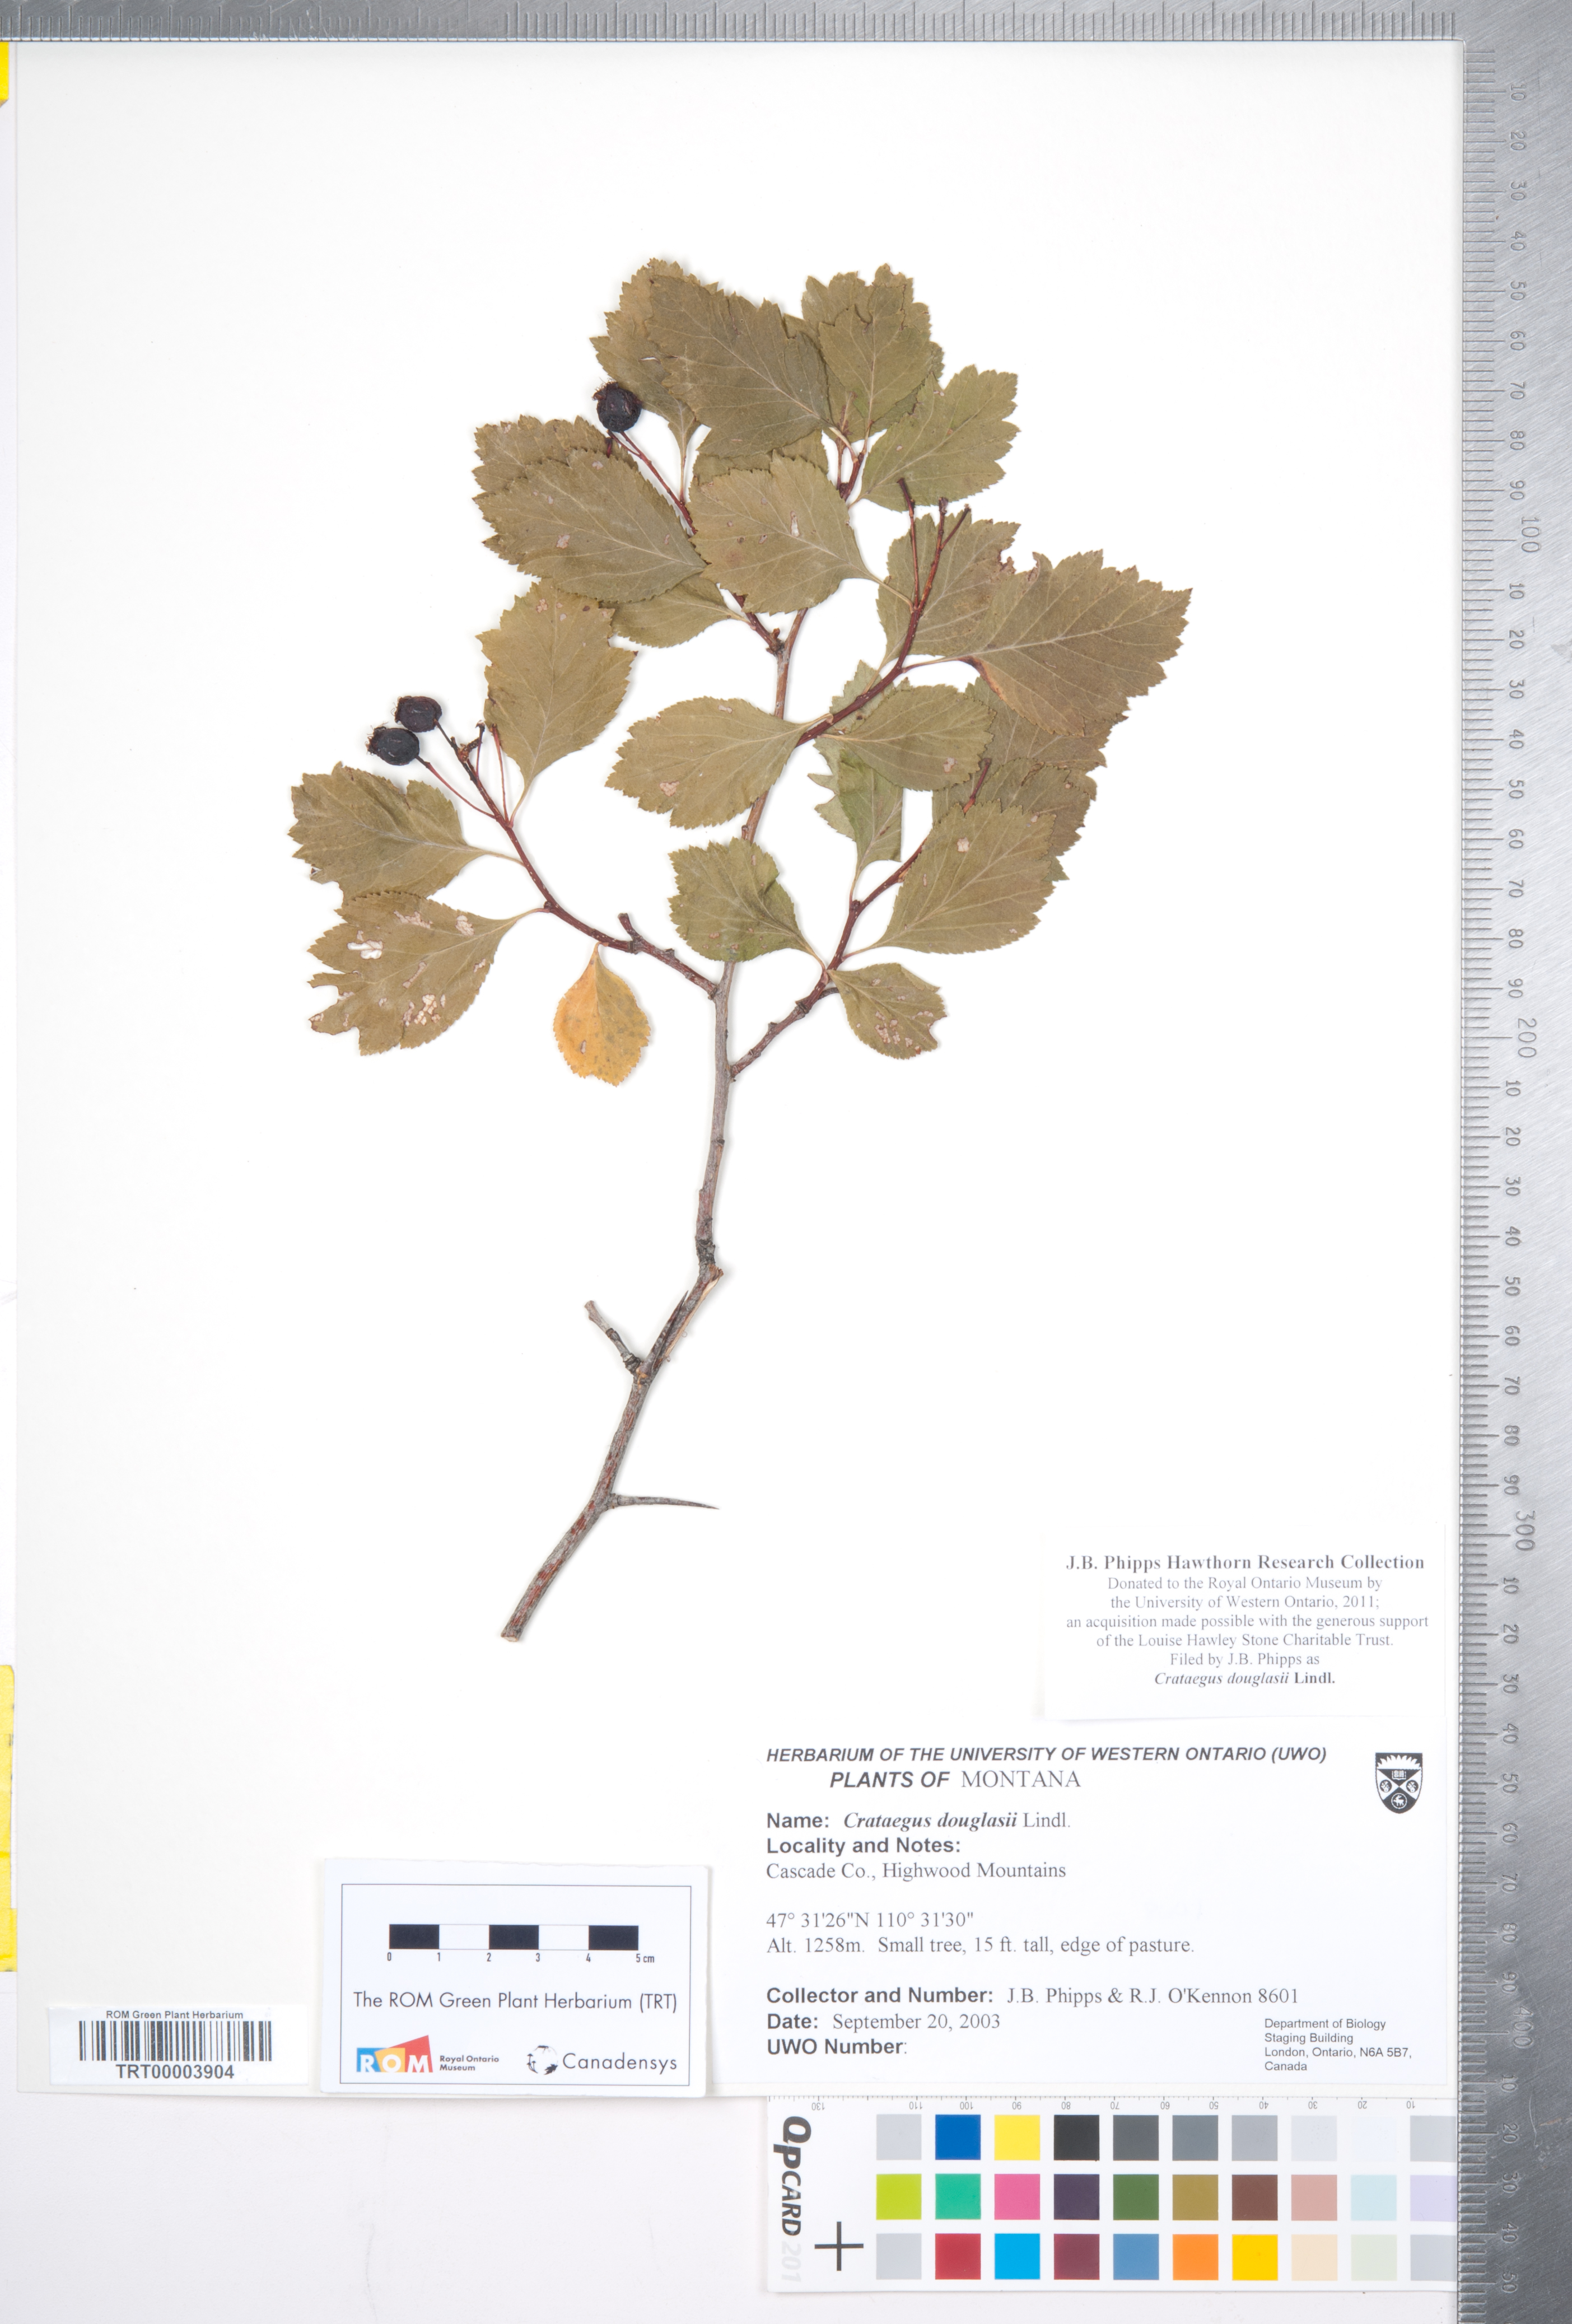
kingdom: Plantae
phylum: Tracheophyta
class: Magnoliopsida
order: Rosales
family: Rosaceae
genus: Crataegus
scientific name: Crataegus douglasii
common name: Black hawthorn
